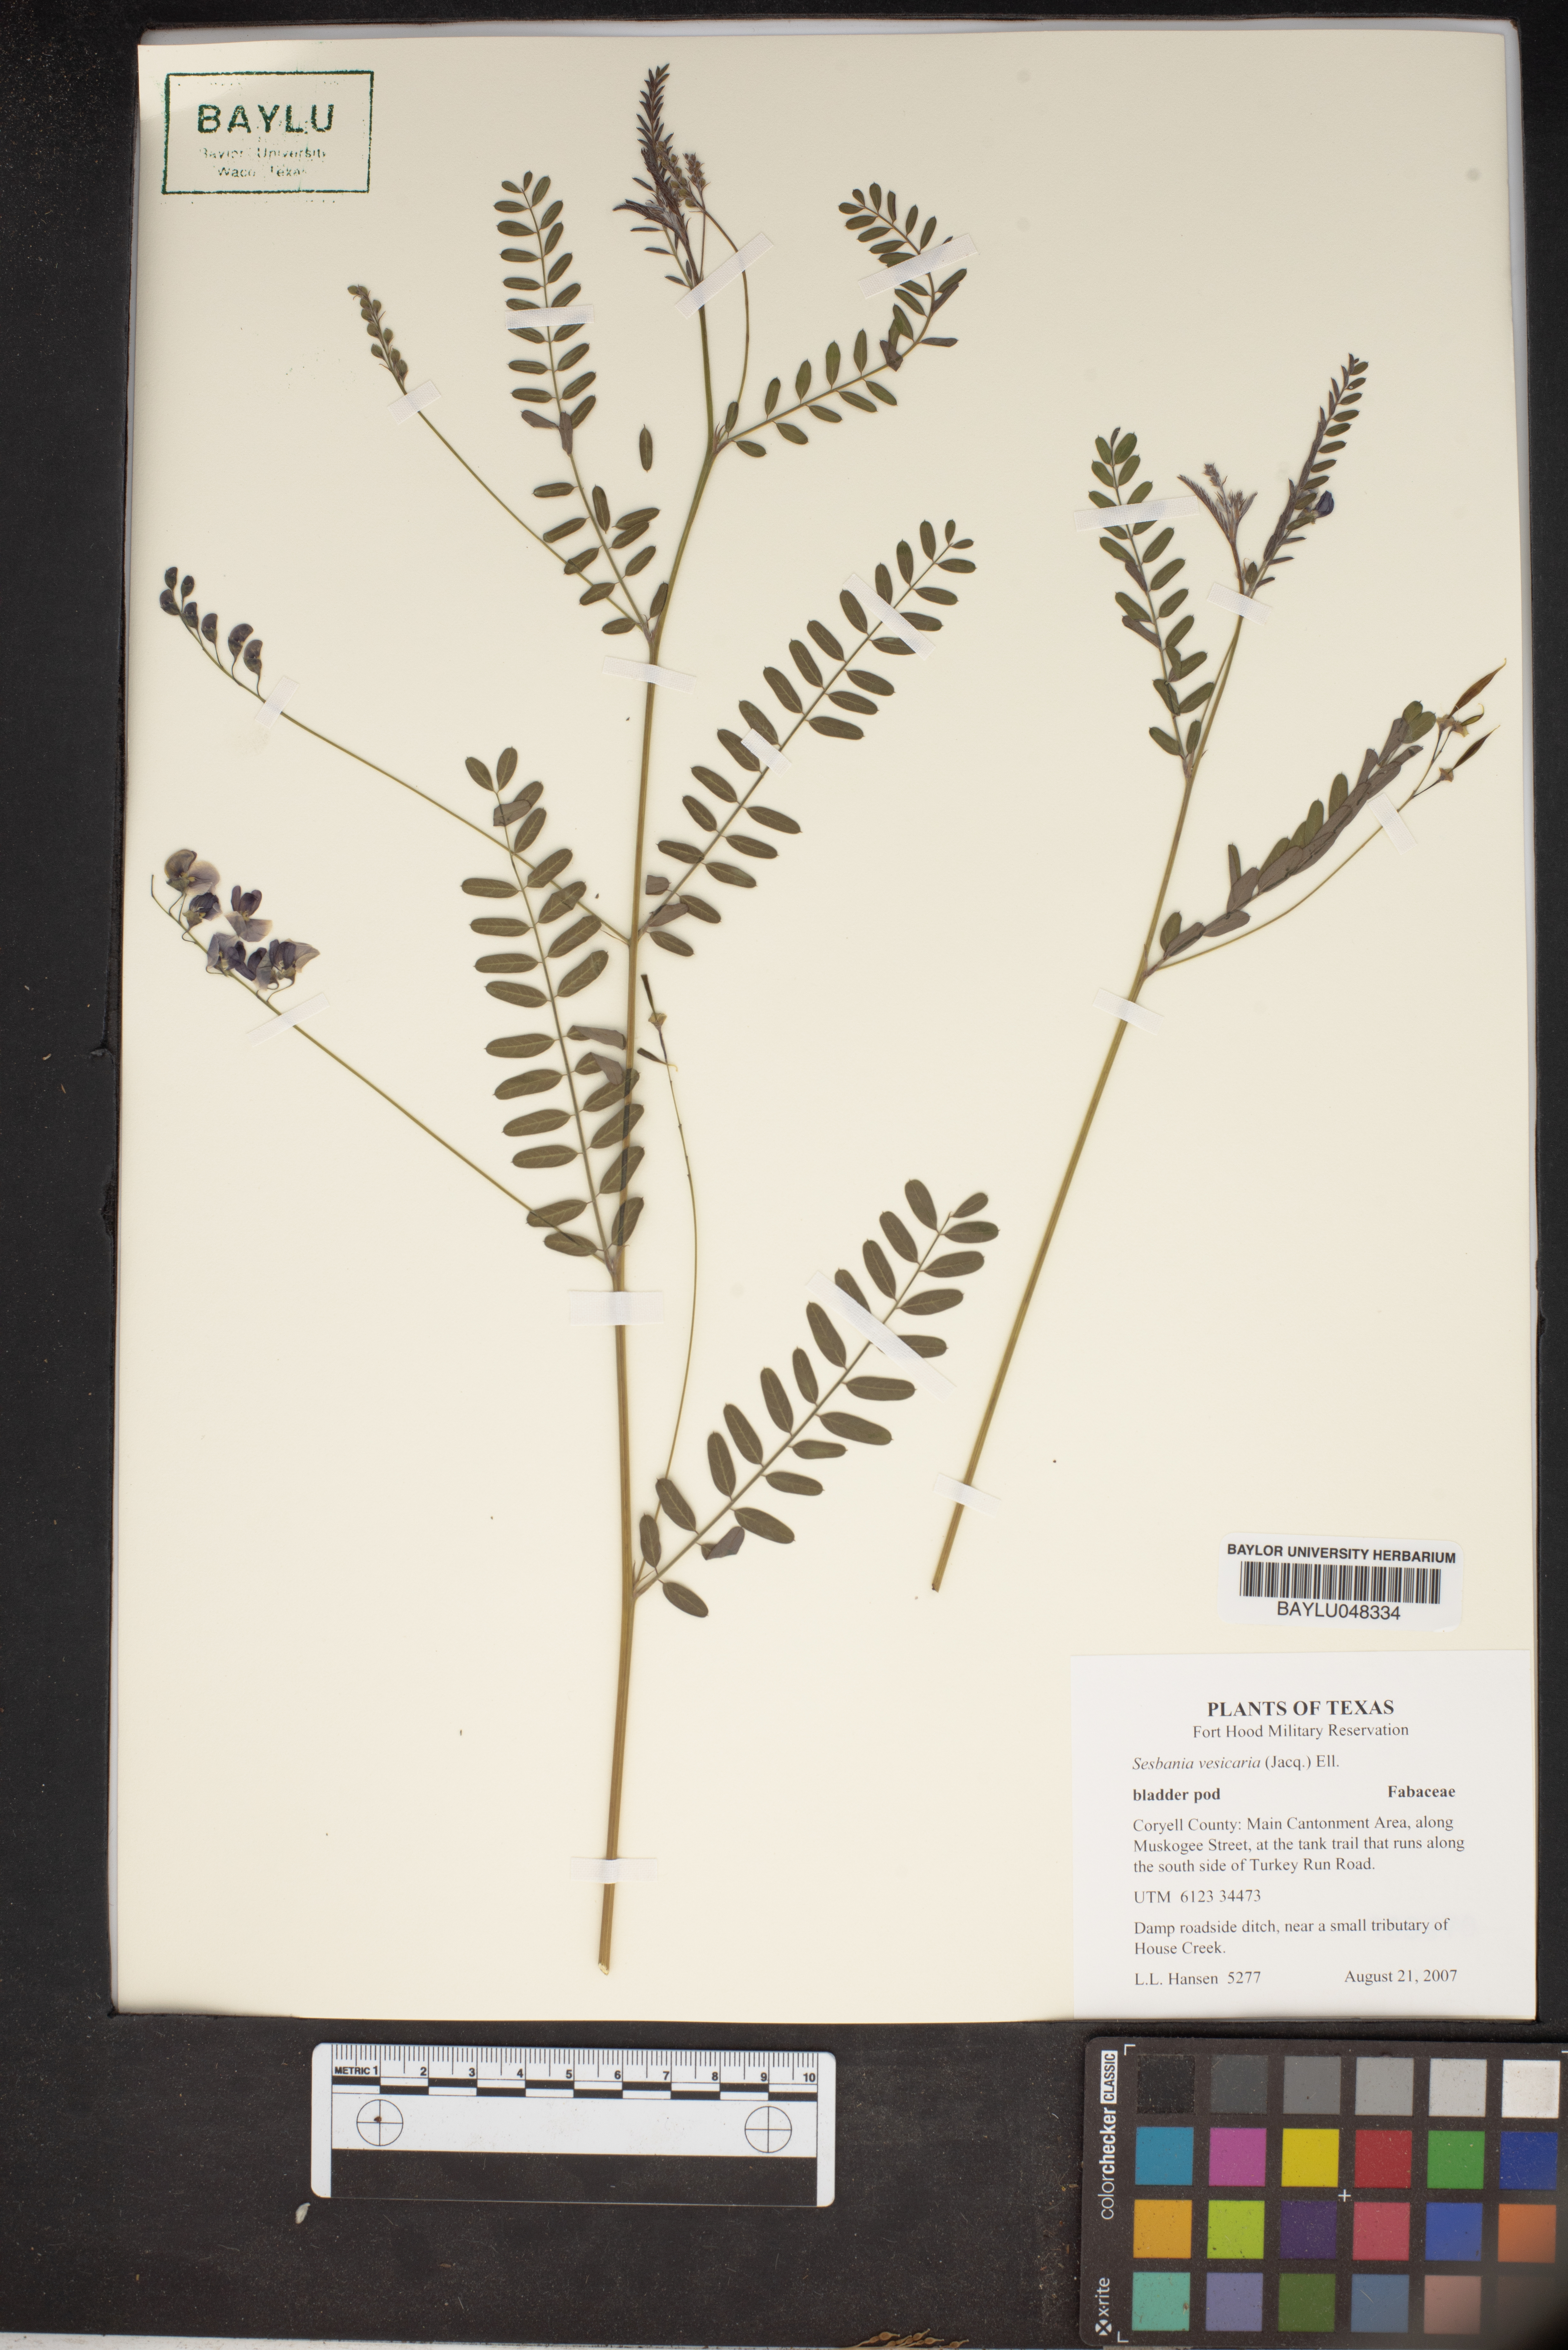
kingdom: Plantae
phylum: Tracheophyta
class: Magnoliopsida
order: Fabales
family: Fabaceae
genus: Sesbania
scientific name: Sesbania vesicaria
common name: Bagpod
